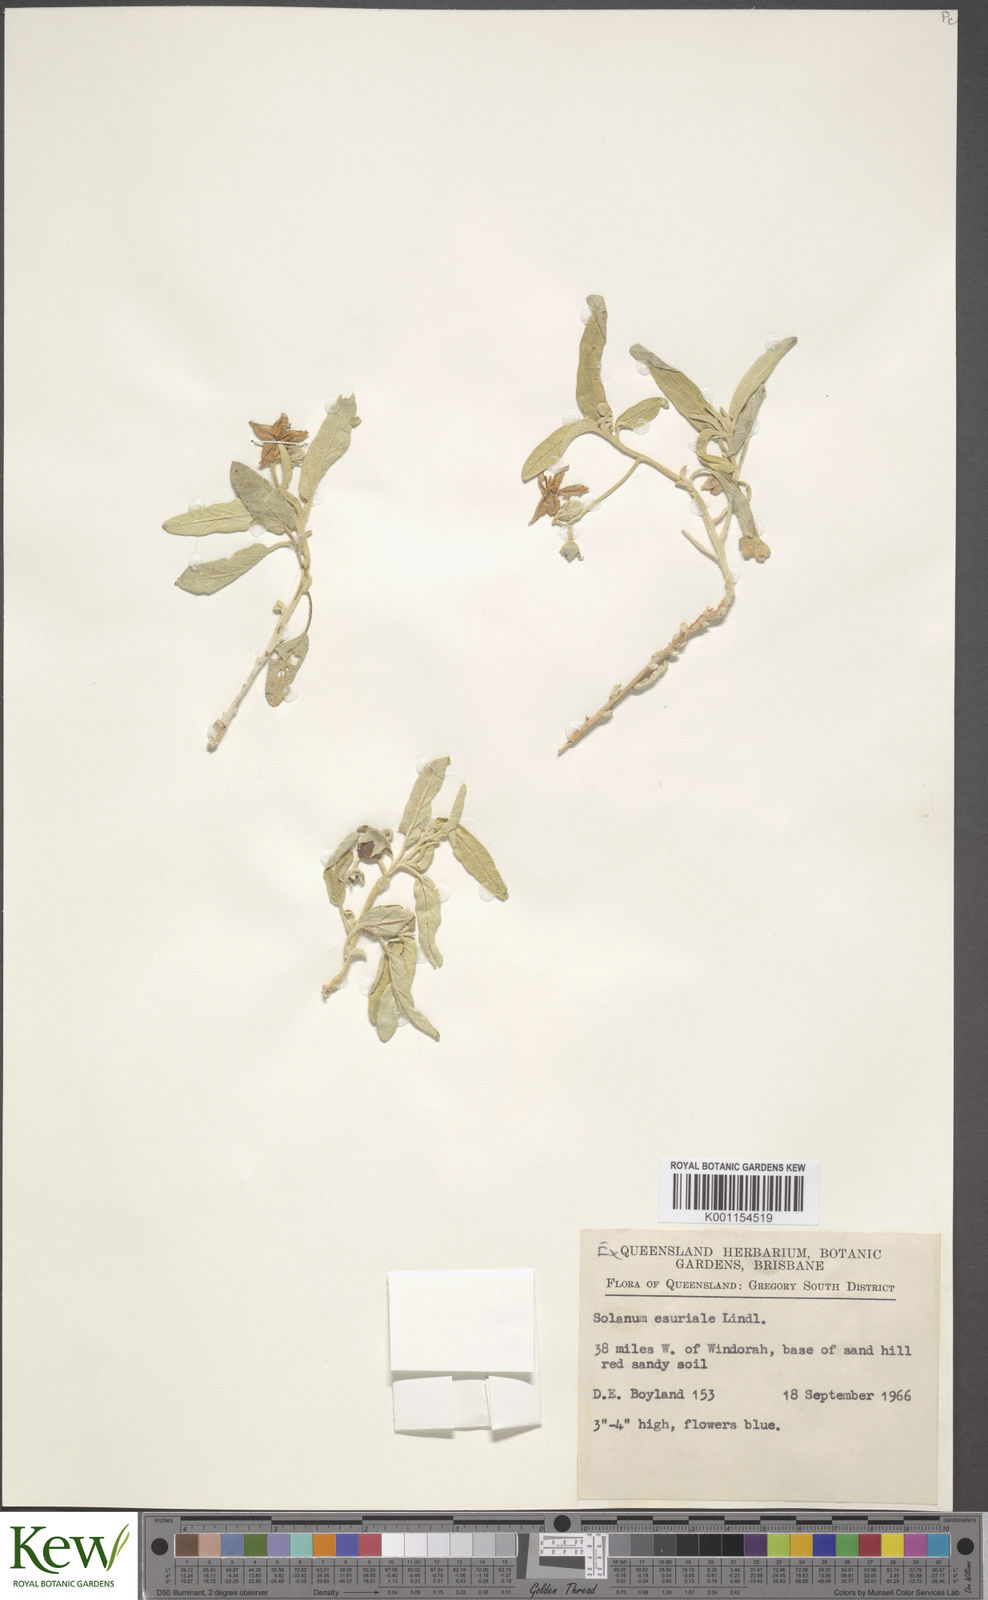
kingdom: Plantae
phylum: Tracheophyta
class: Magnoliopsida
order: Solanales
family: Solanaceae
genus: Solanum
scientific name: Solanum esuriale
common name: Wild tomato
